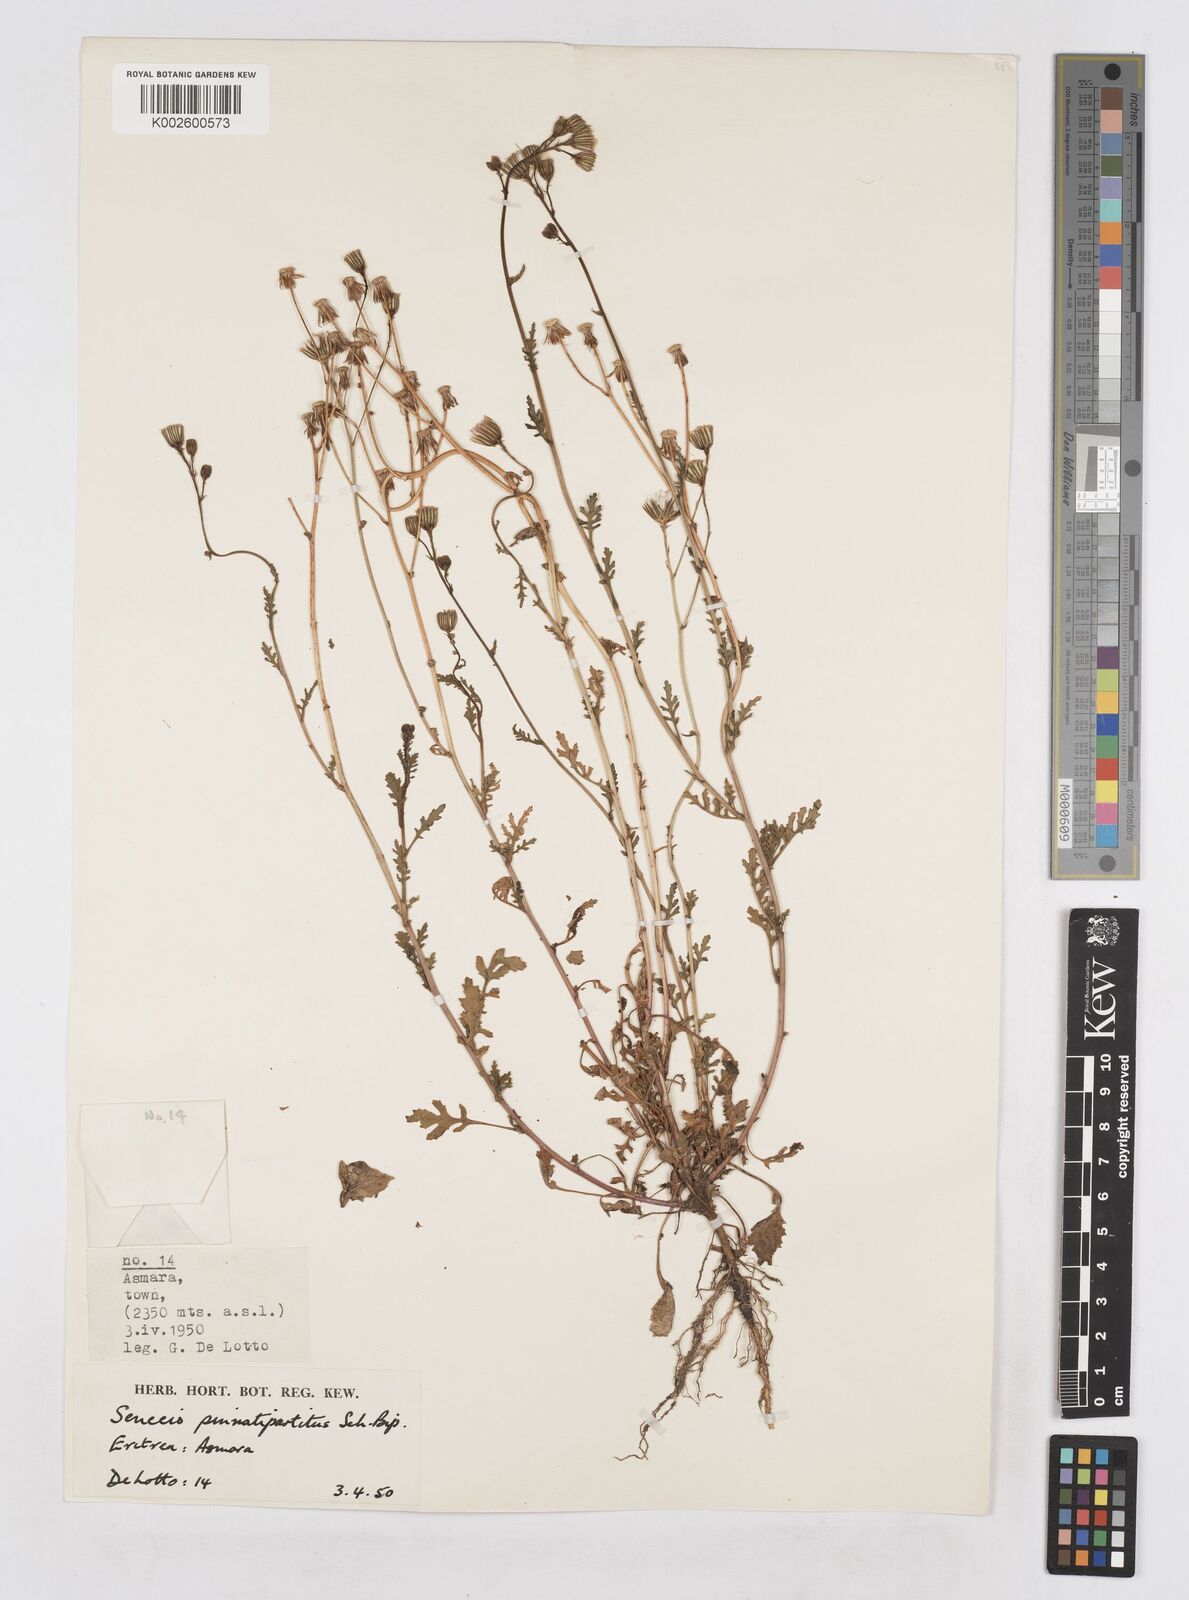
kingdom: Plantae
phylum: Tracheophyta
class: Magnoliopsida
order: Asterales
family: Asteraceae
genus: Senecio
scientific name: Senecio pinnatipartitus
